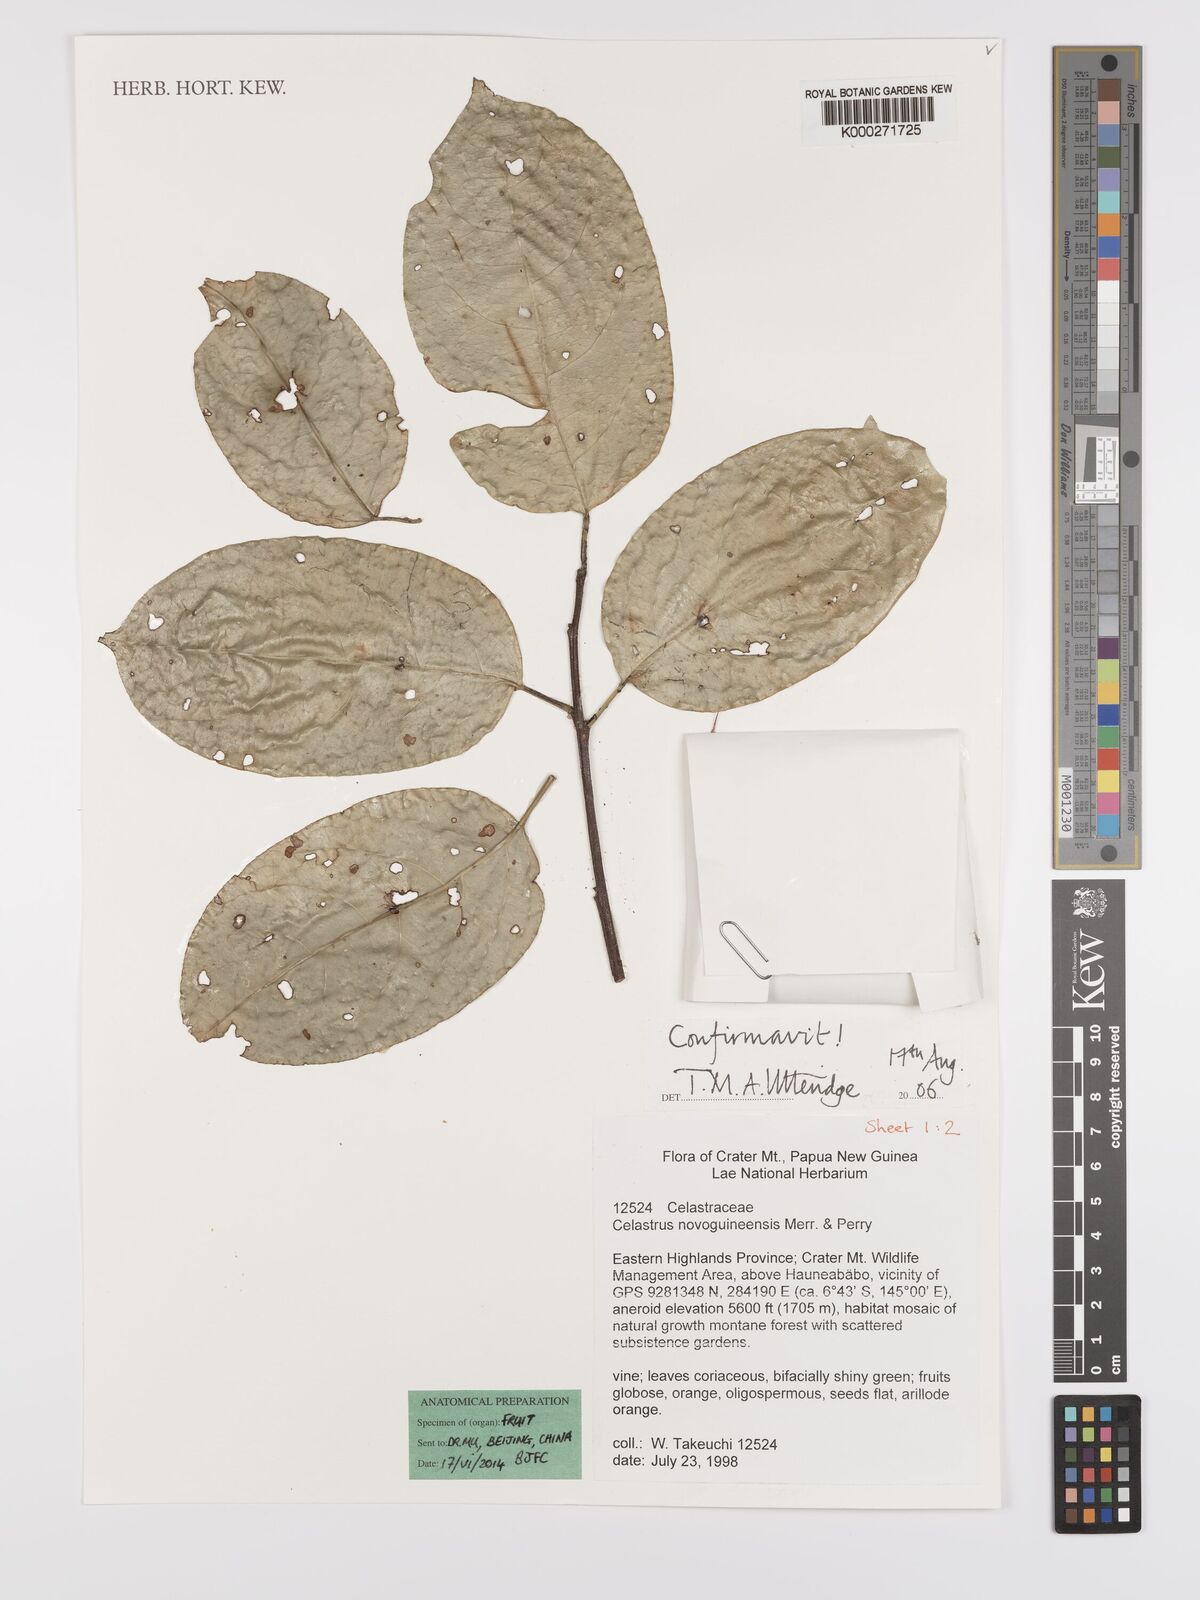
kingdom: Plantae
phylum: Tracheophyta
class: Magnoliopsida
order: Celastrales
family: Celastraceae
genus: Celastrus
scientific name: Celastrus novoguineensis
